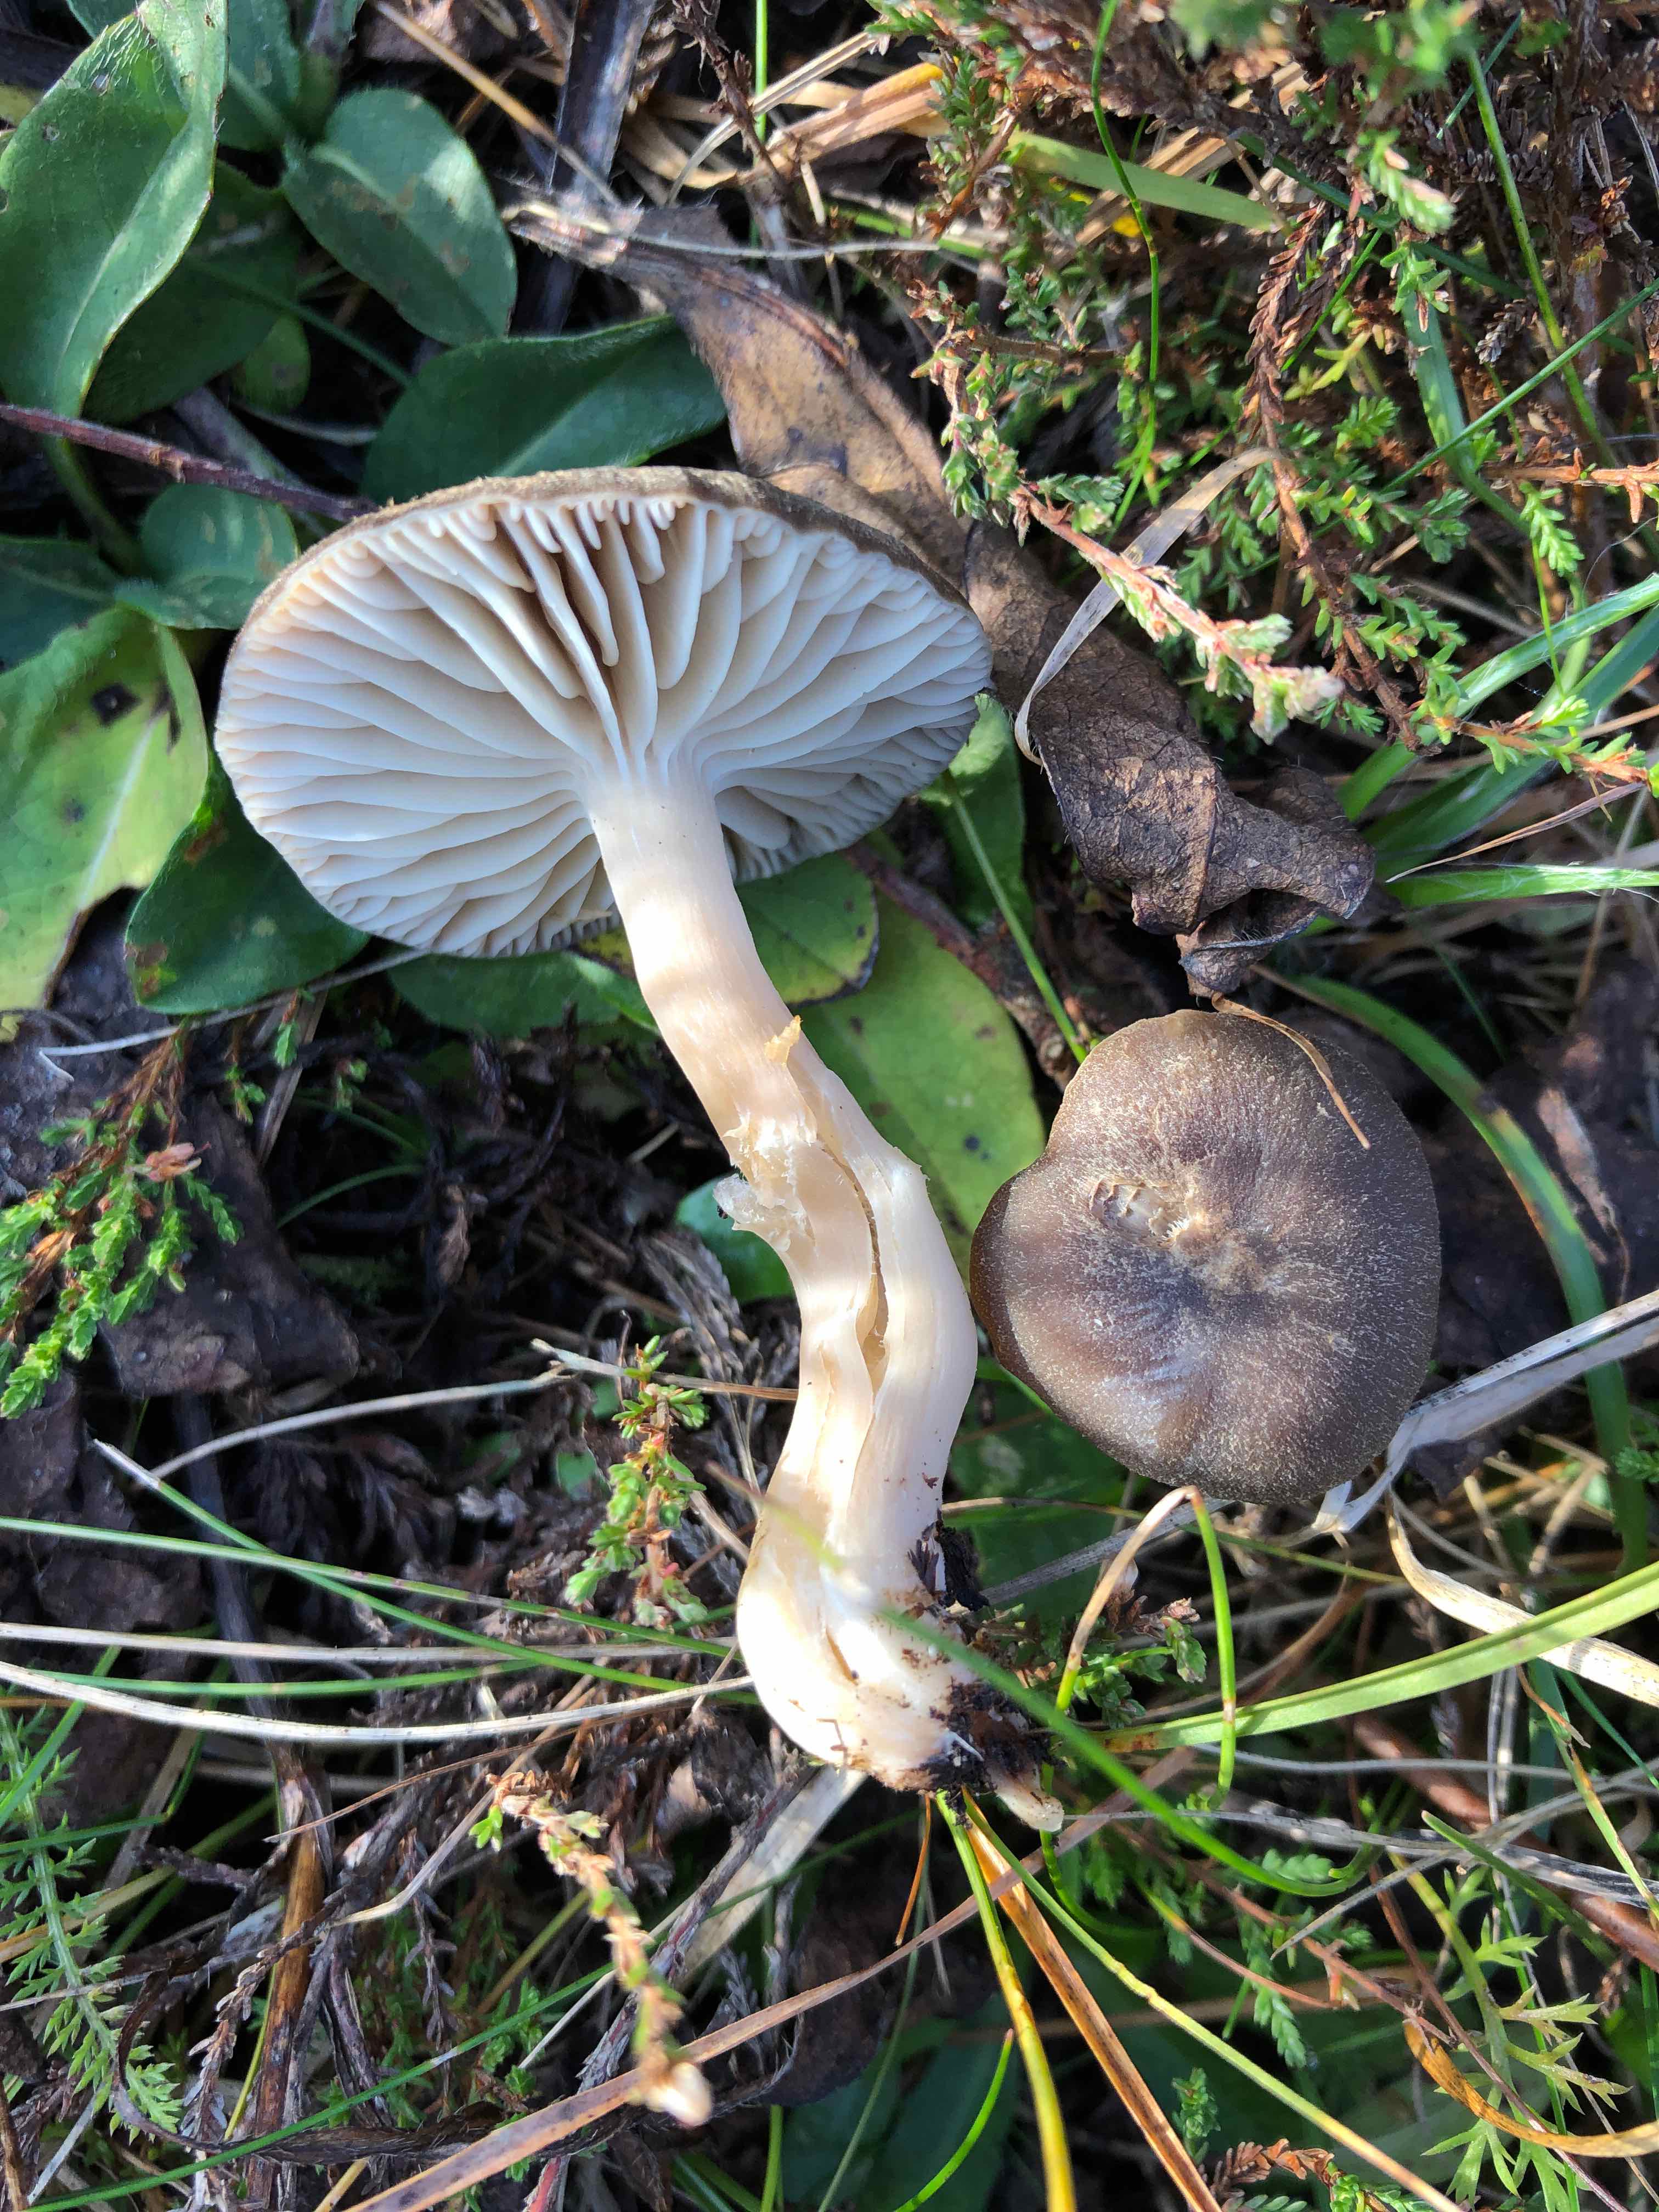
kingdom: Fungi
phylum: Basidiomycota
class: Agaricomycetes
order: Agaricales
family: Hygrophoraceae
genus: Neohygrocybe
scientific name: Neohygrocybe nitrata
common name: stinkende vokshat
